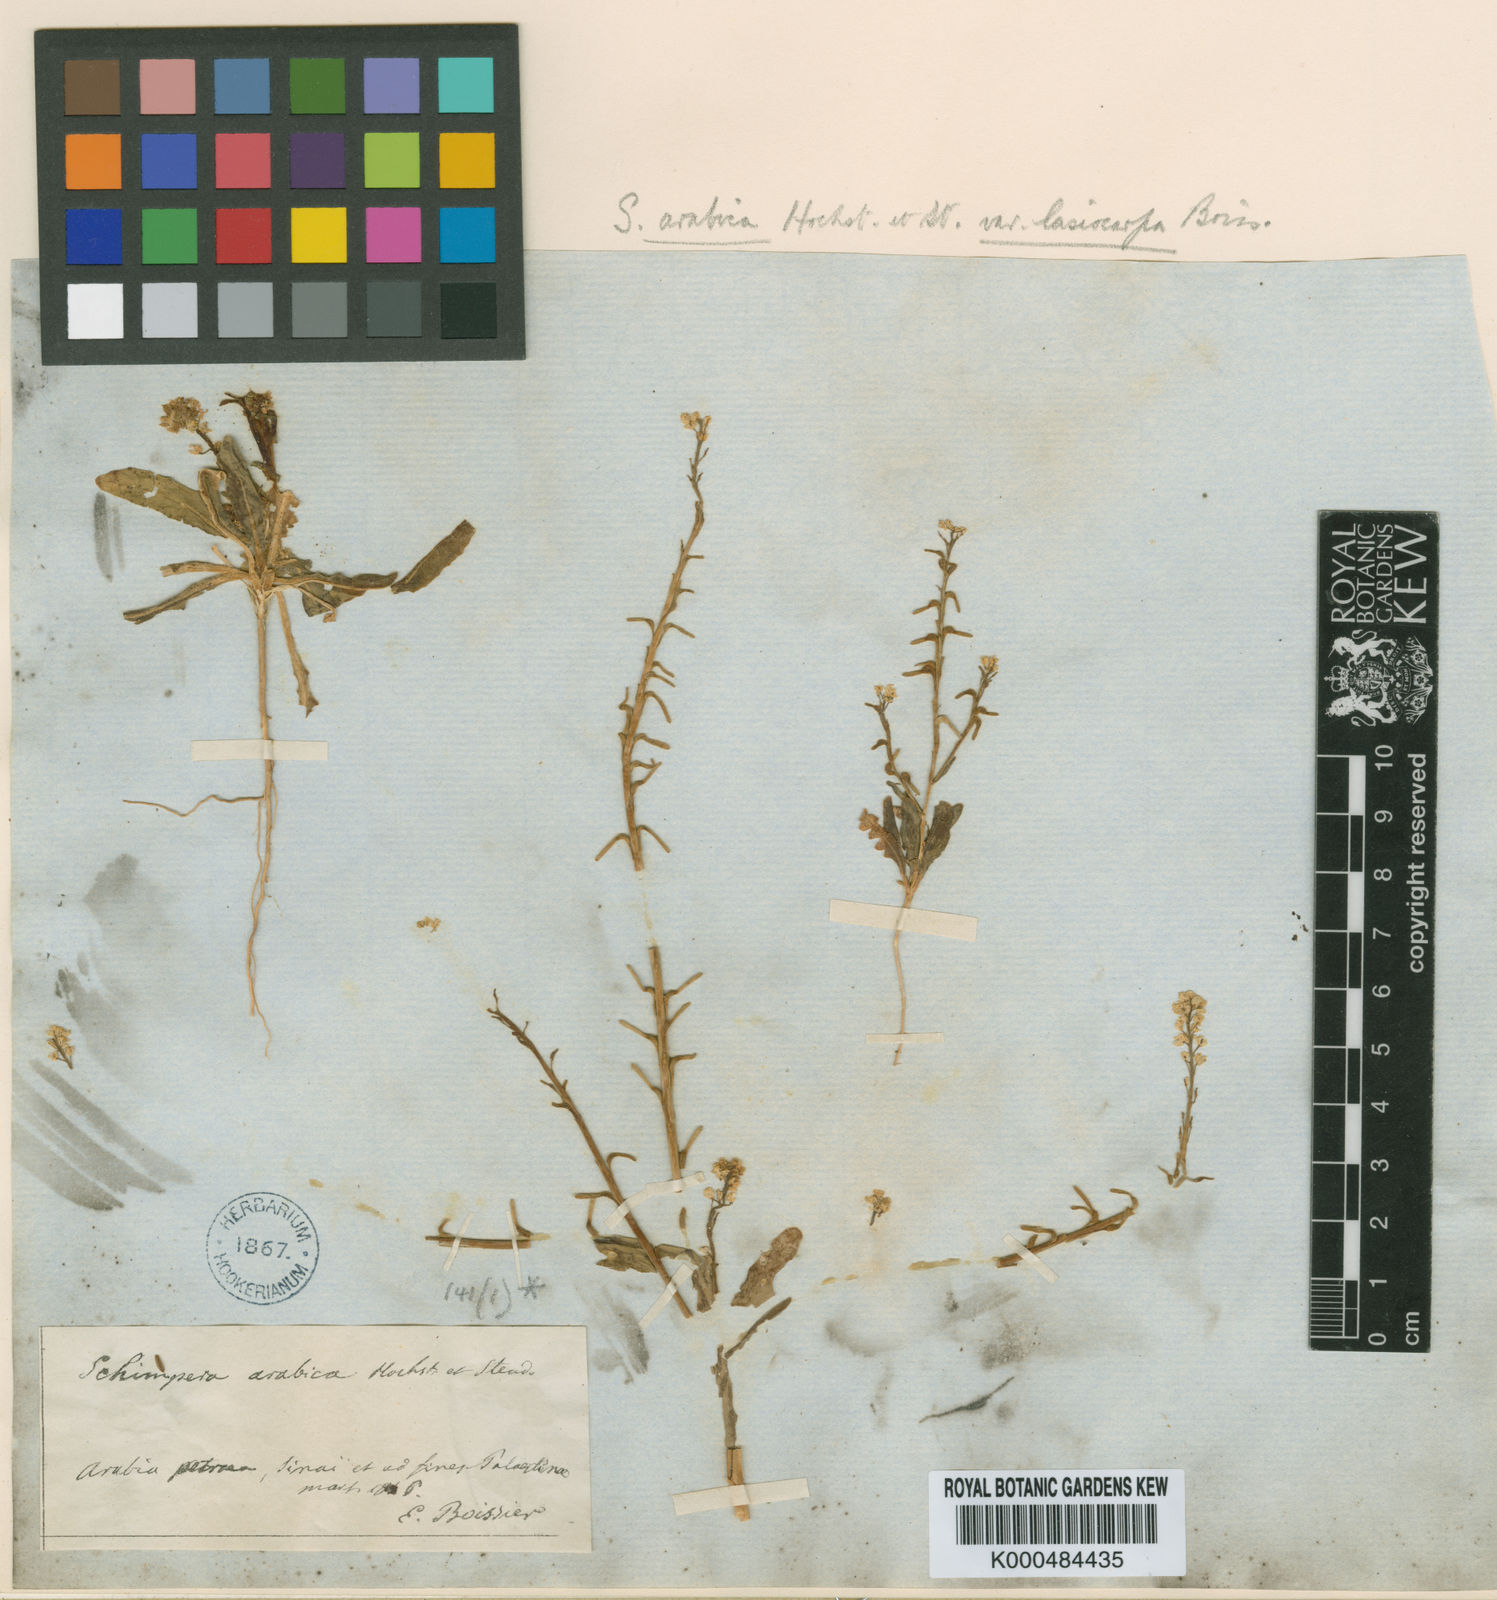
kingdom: Plantae
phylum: Tracheophyta
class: Magnoliopsida
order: Brassicales
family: Brassicaceae
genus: Schimpera
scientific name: Schimpera arabica
